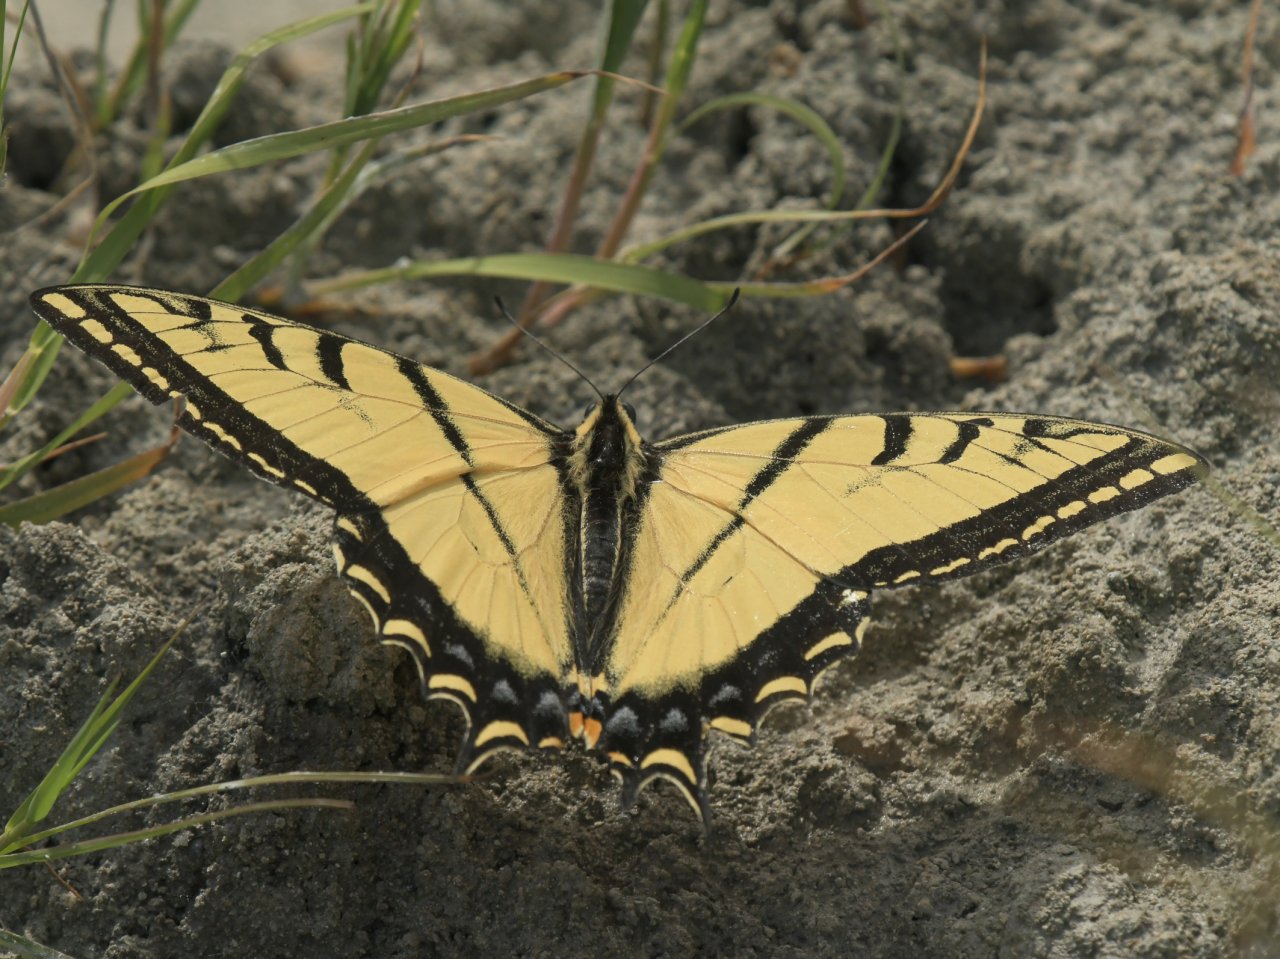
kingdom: Animalia
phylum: Arthropoda
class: Insecta
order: Lepidoptera
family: Papilionidae
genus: Papilio
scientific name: Papilio multicaudata
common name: Two-tailed Swallowtail
